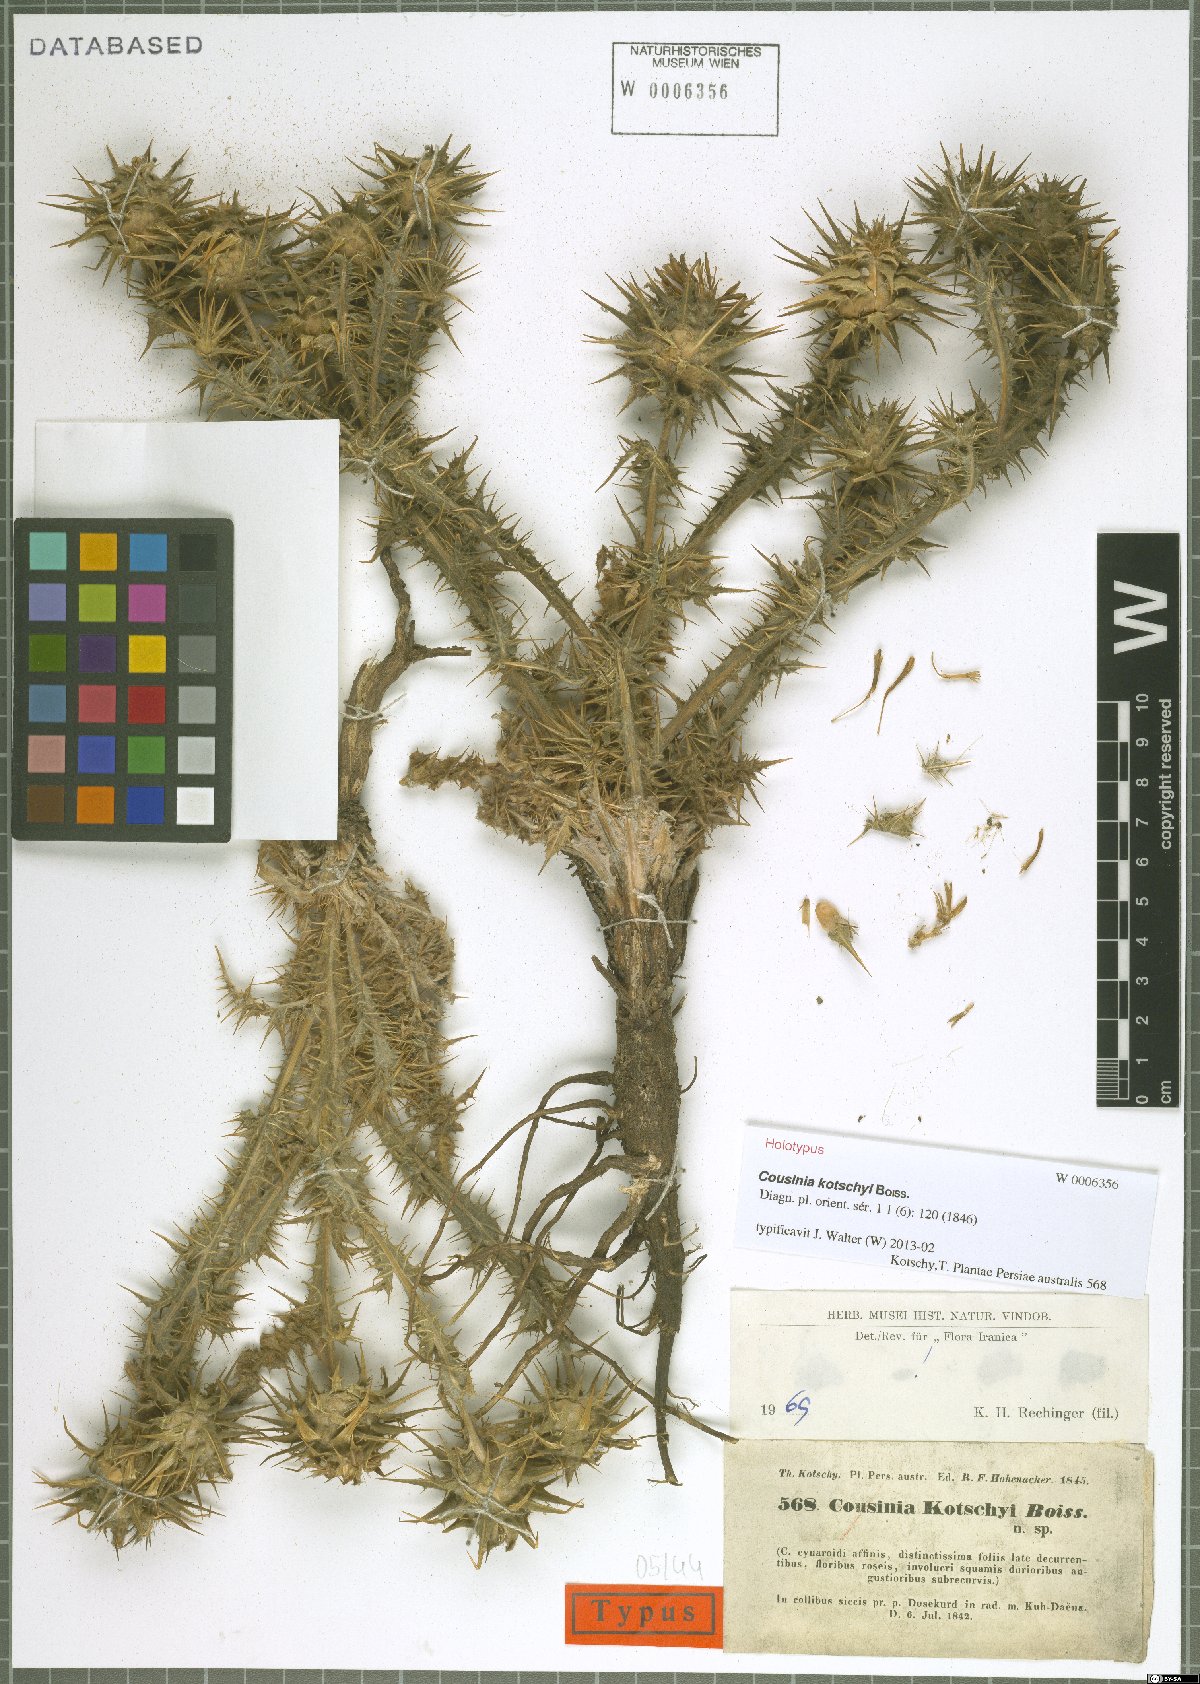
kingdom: Plantae
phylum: Tracheophyta
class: Magnoliopsida
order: Asterales
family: Asteraceae
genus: Cousinia
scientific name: Cousinia kotschyi
